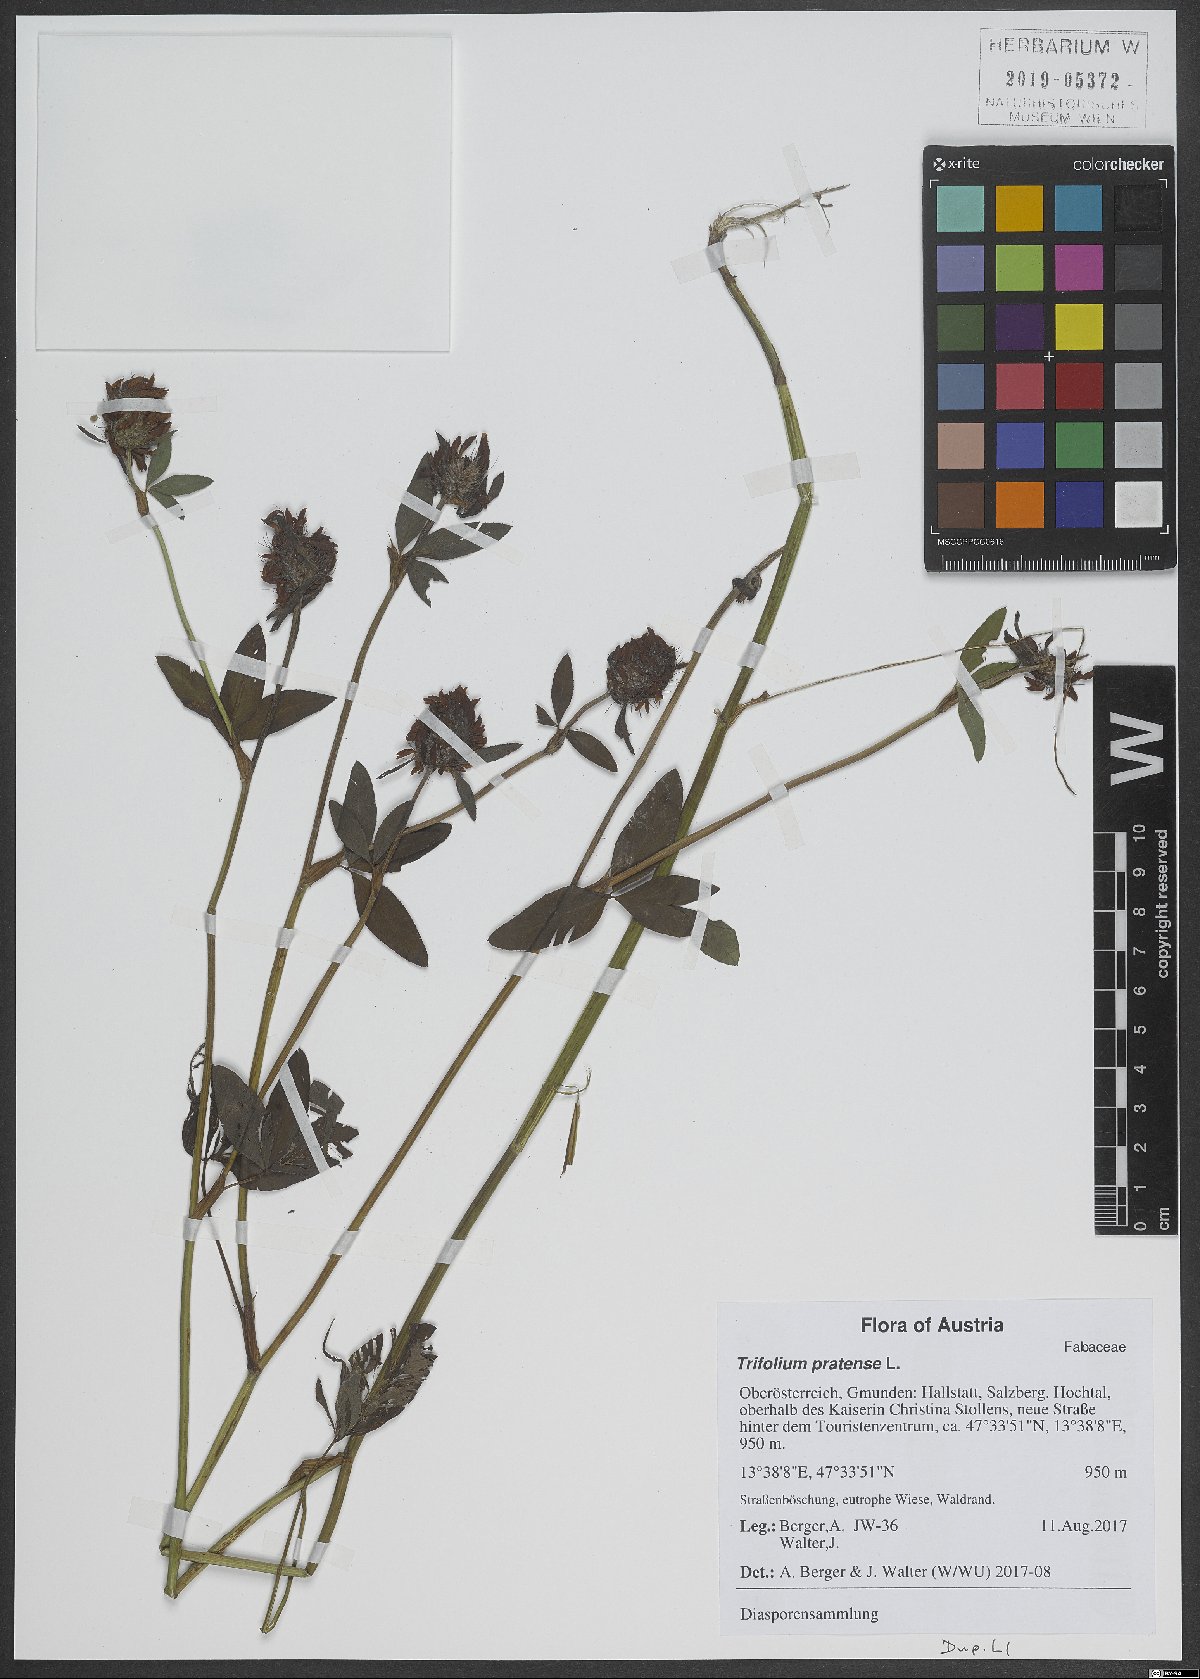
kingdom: Plantae
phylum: Tracheophyta
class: Magnoliopsida
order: Fabales
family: Fabaceae
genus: Trifolium
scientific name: Trifolium pratense
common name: Red clover
